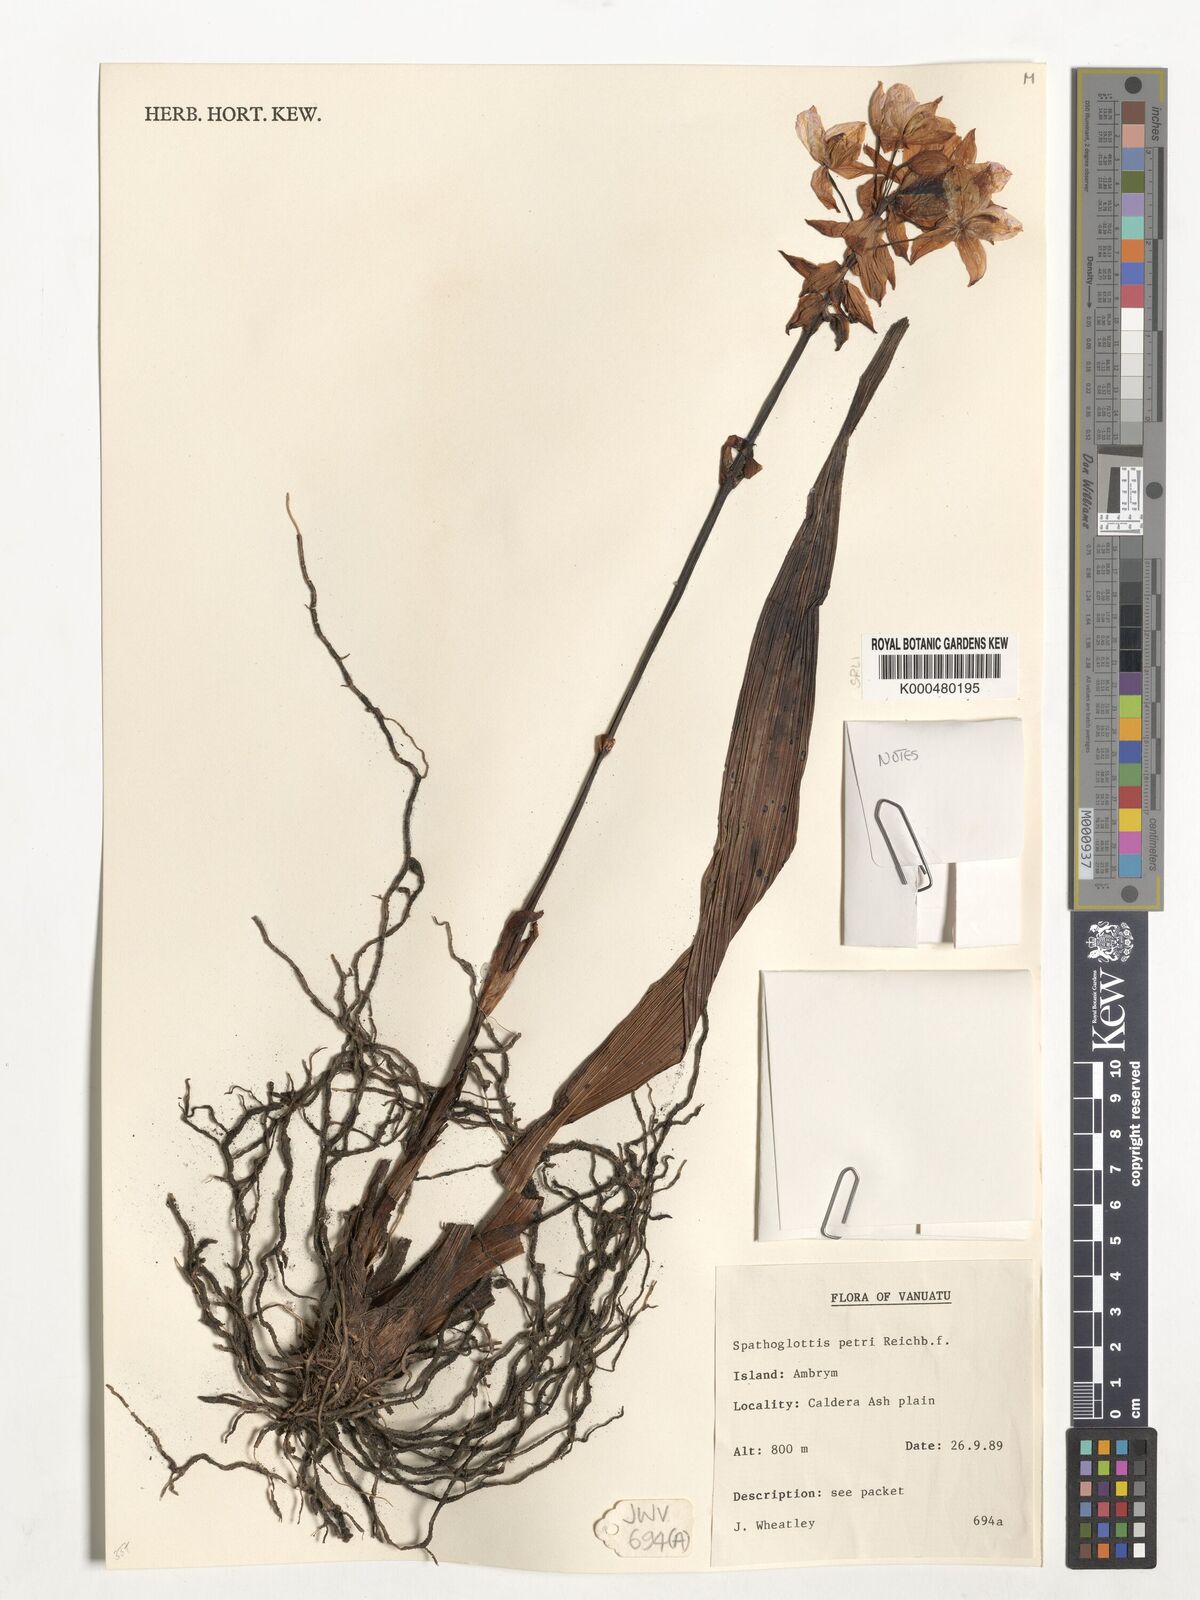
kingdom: Plantae
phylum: Tracheophyta
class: Liliopsida
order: Asparagales
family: Orchidaceae
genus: Spathoglottis
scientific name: Spathoglottis petri
